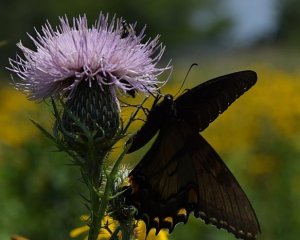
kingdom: Animalia
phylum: Arthropoda
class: Insecta
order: Lepidoptera
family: Papilionidae
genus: Pterourus
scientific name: Pterourus glaucus
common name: Eastern Tiger Swallowtail
